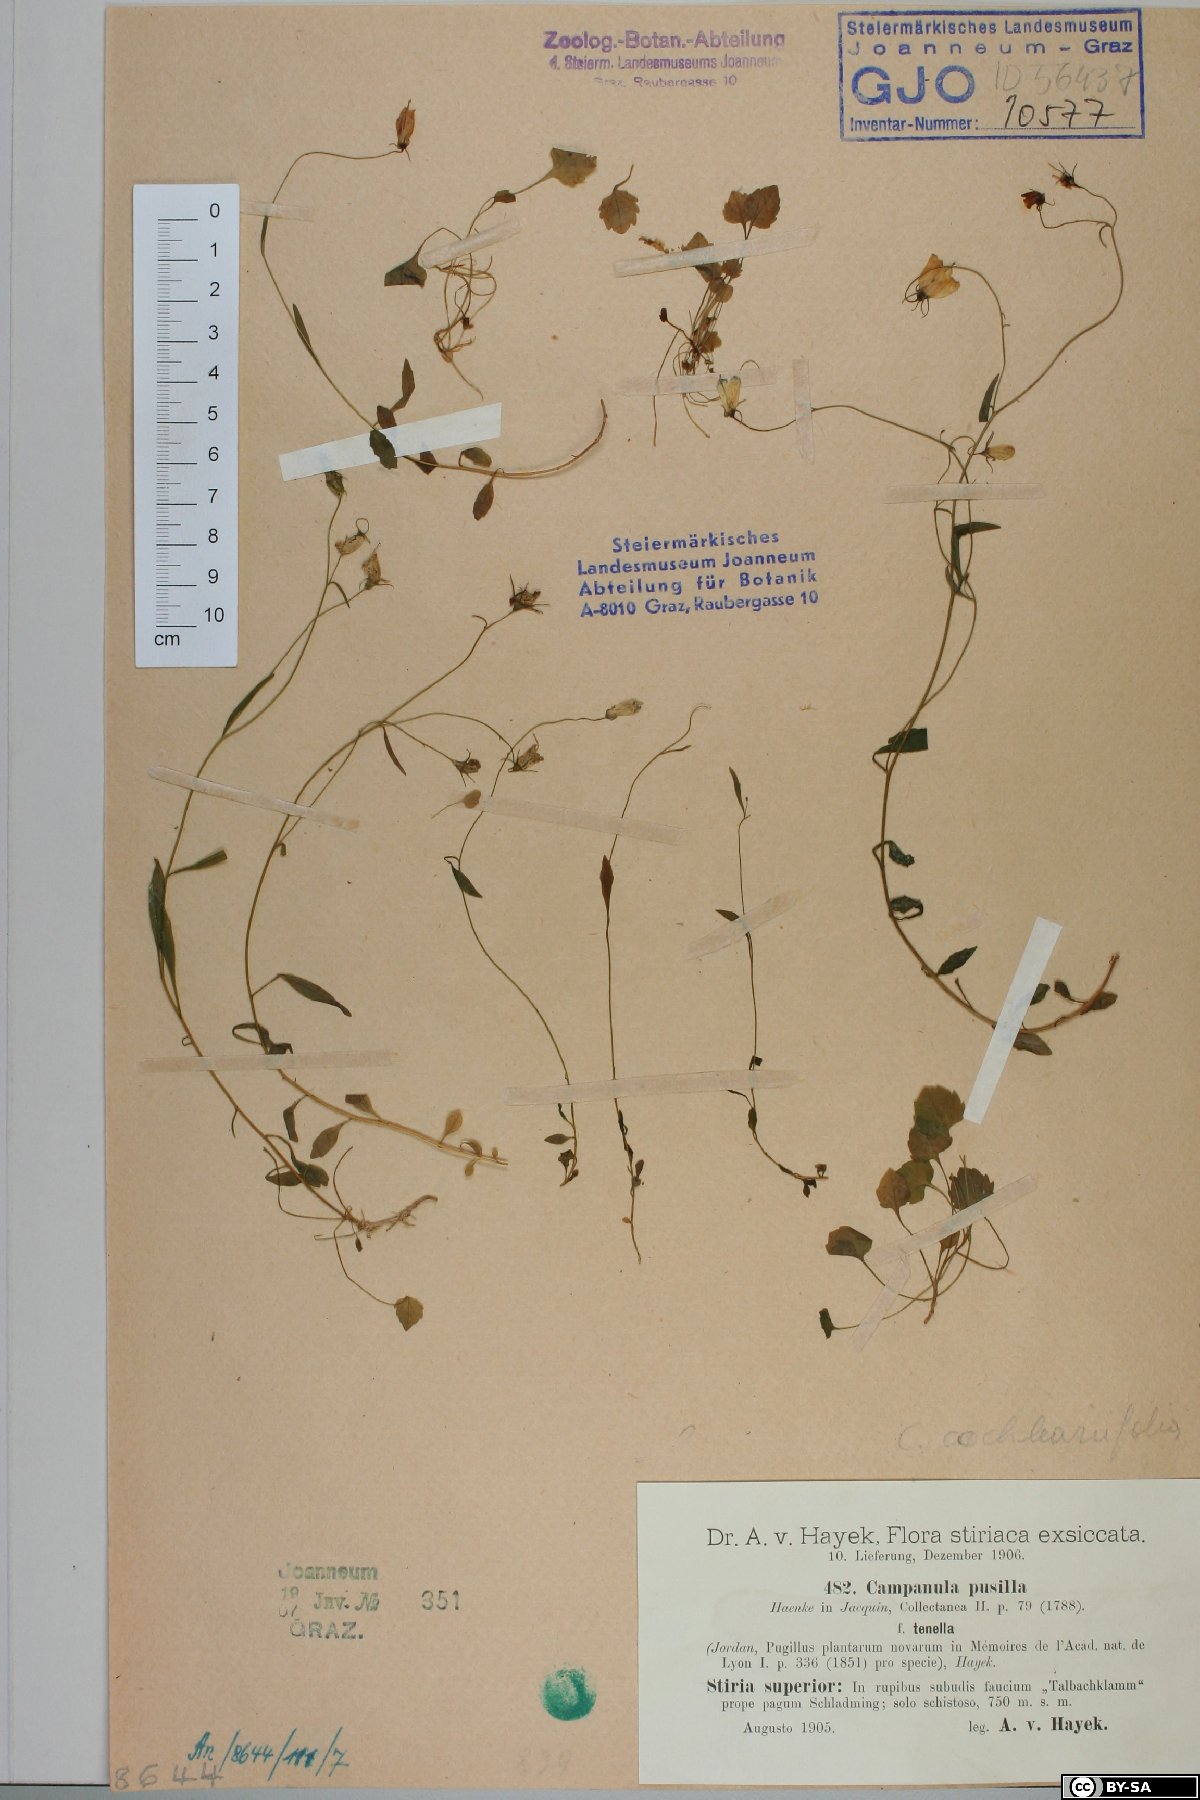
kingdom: Plantae
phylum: Tracheophyta
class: Magnoliopsida
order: Asterales
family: Campanulaceae
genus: Campanula
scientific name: Campanula cochleariifolia
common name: Fairies'-thimbles
